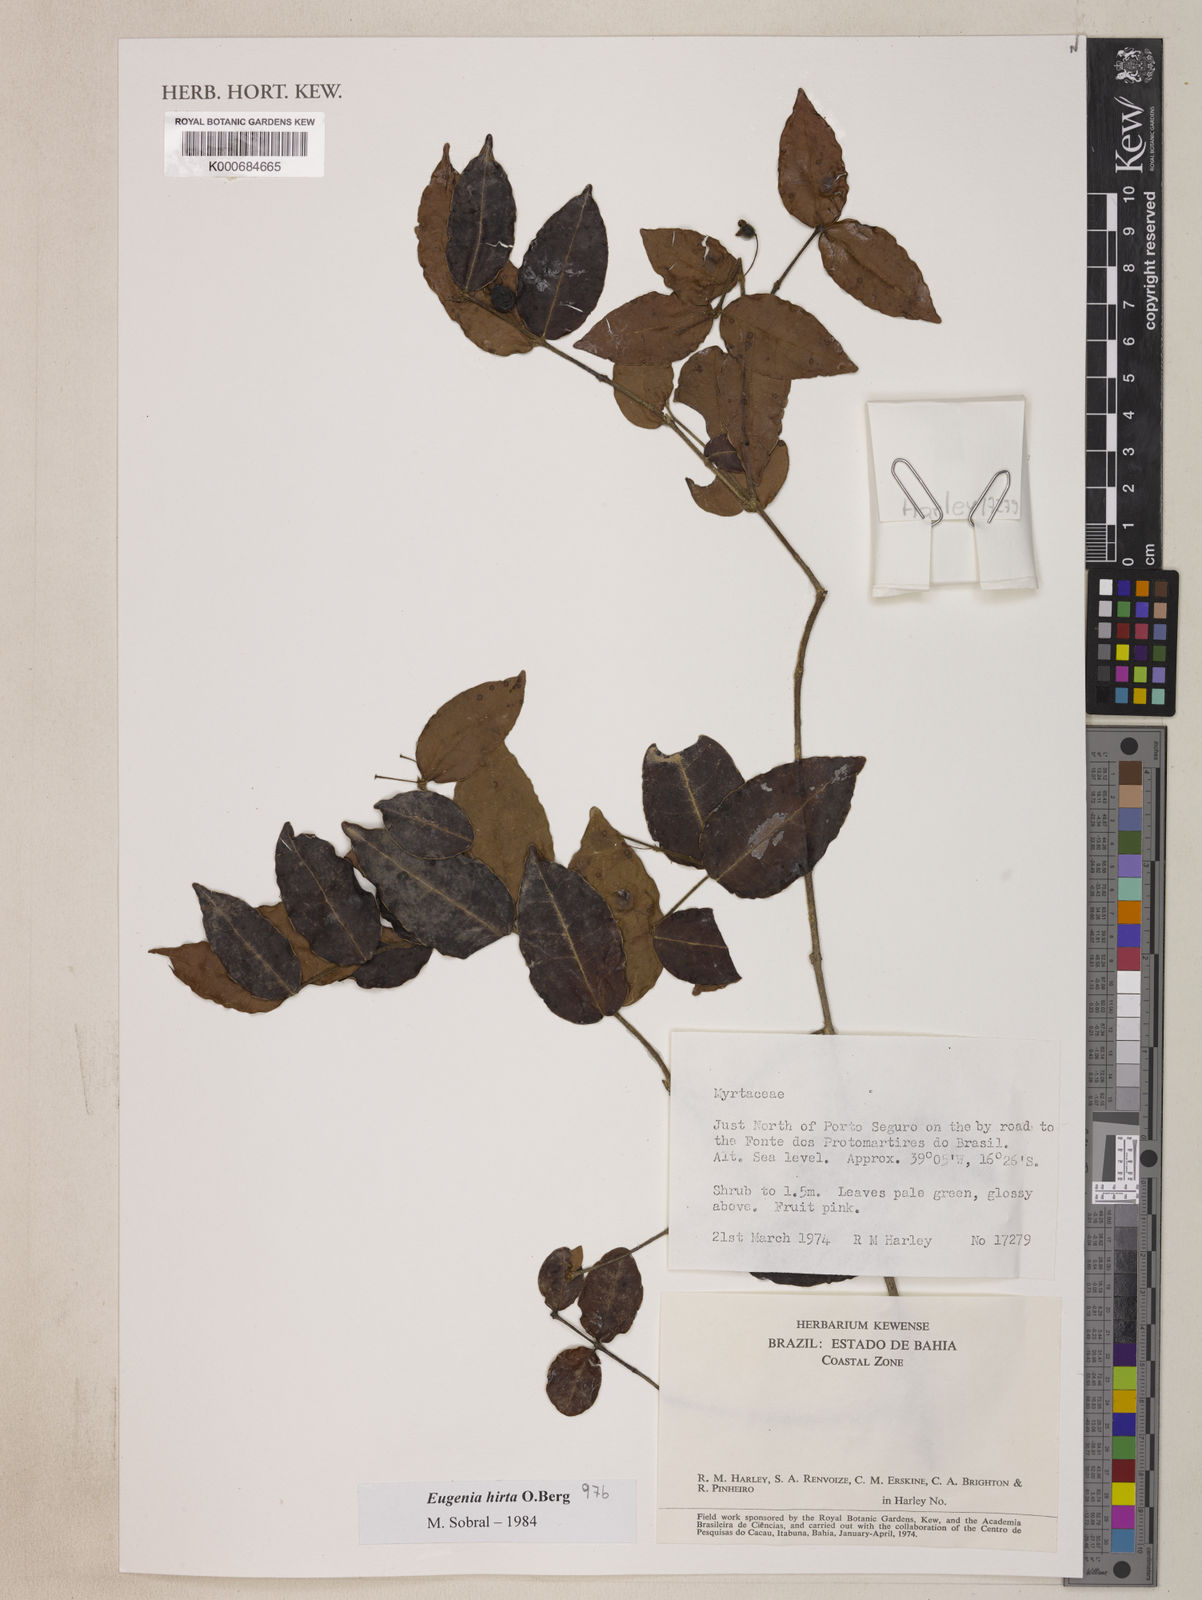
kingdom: Plantae
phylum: Tracheophyta
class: Magnoliopsida
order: Myrtales
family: Myrtaceae
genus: Eugenia
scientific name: Eugenia hirta
